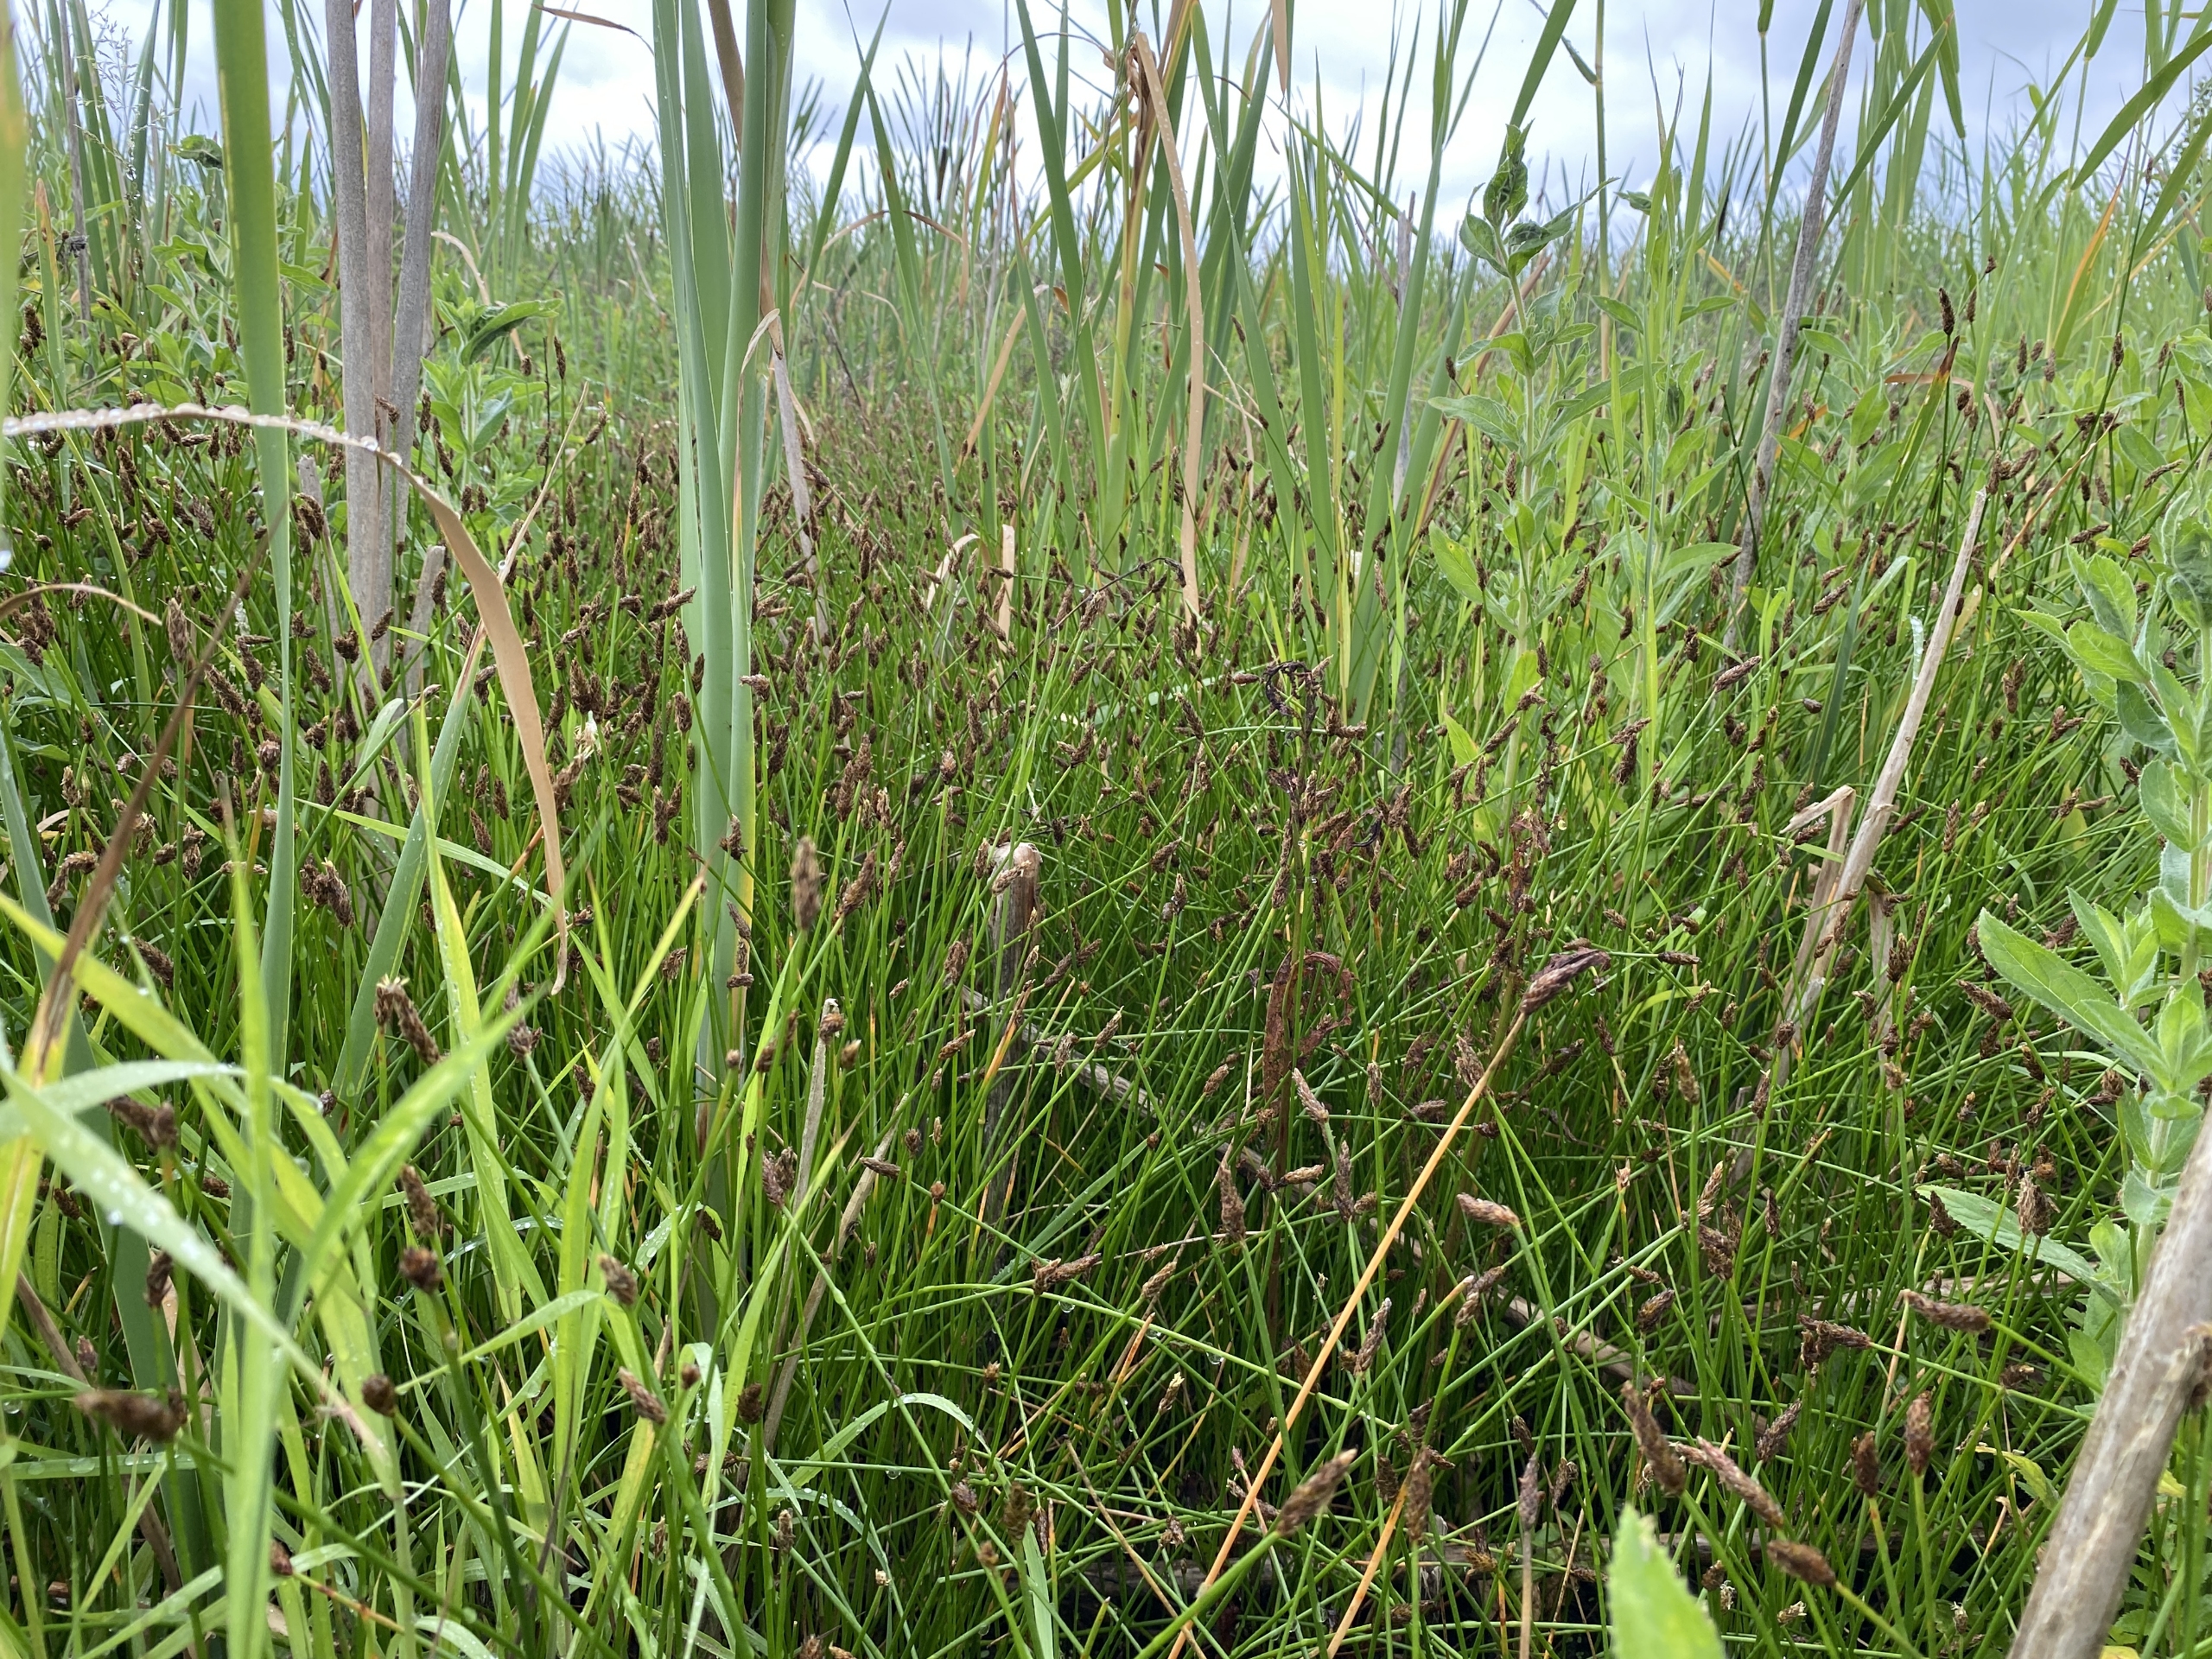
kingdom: Plantae
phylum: Tracheophyta
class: Liliopsida
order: Poales
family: Cyperaceae
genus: Eleocharis
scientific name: Eleocharis palustris
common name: Almindelig sumpstrå
